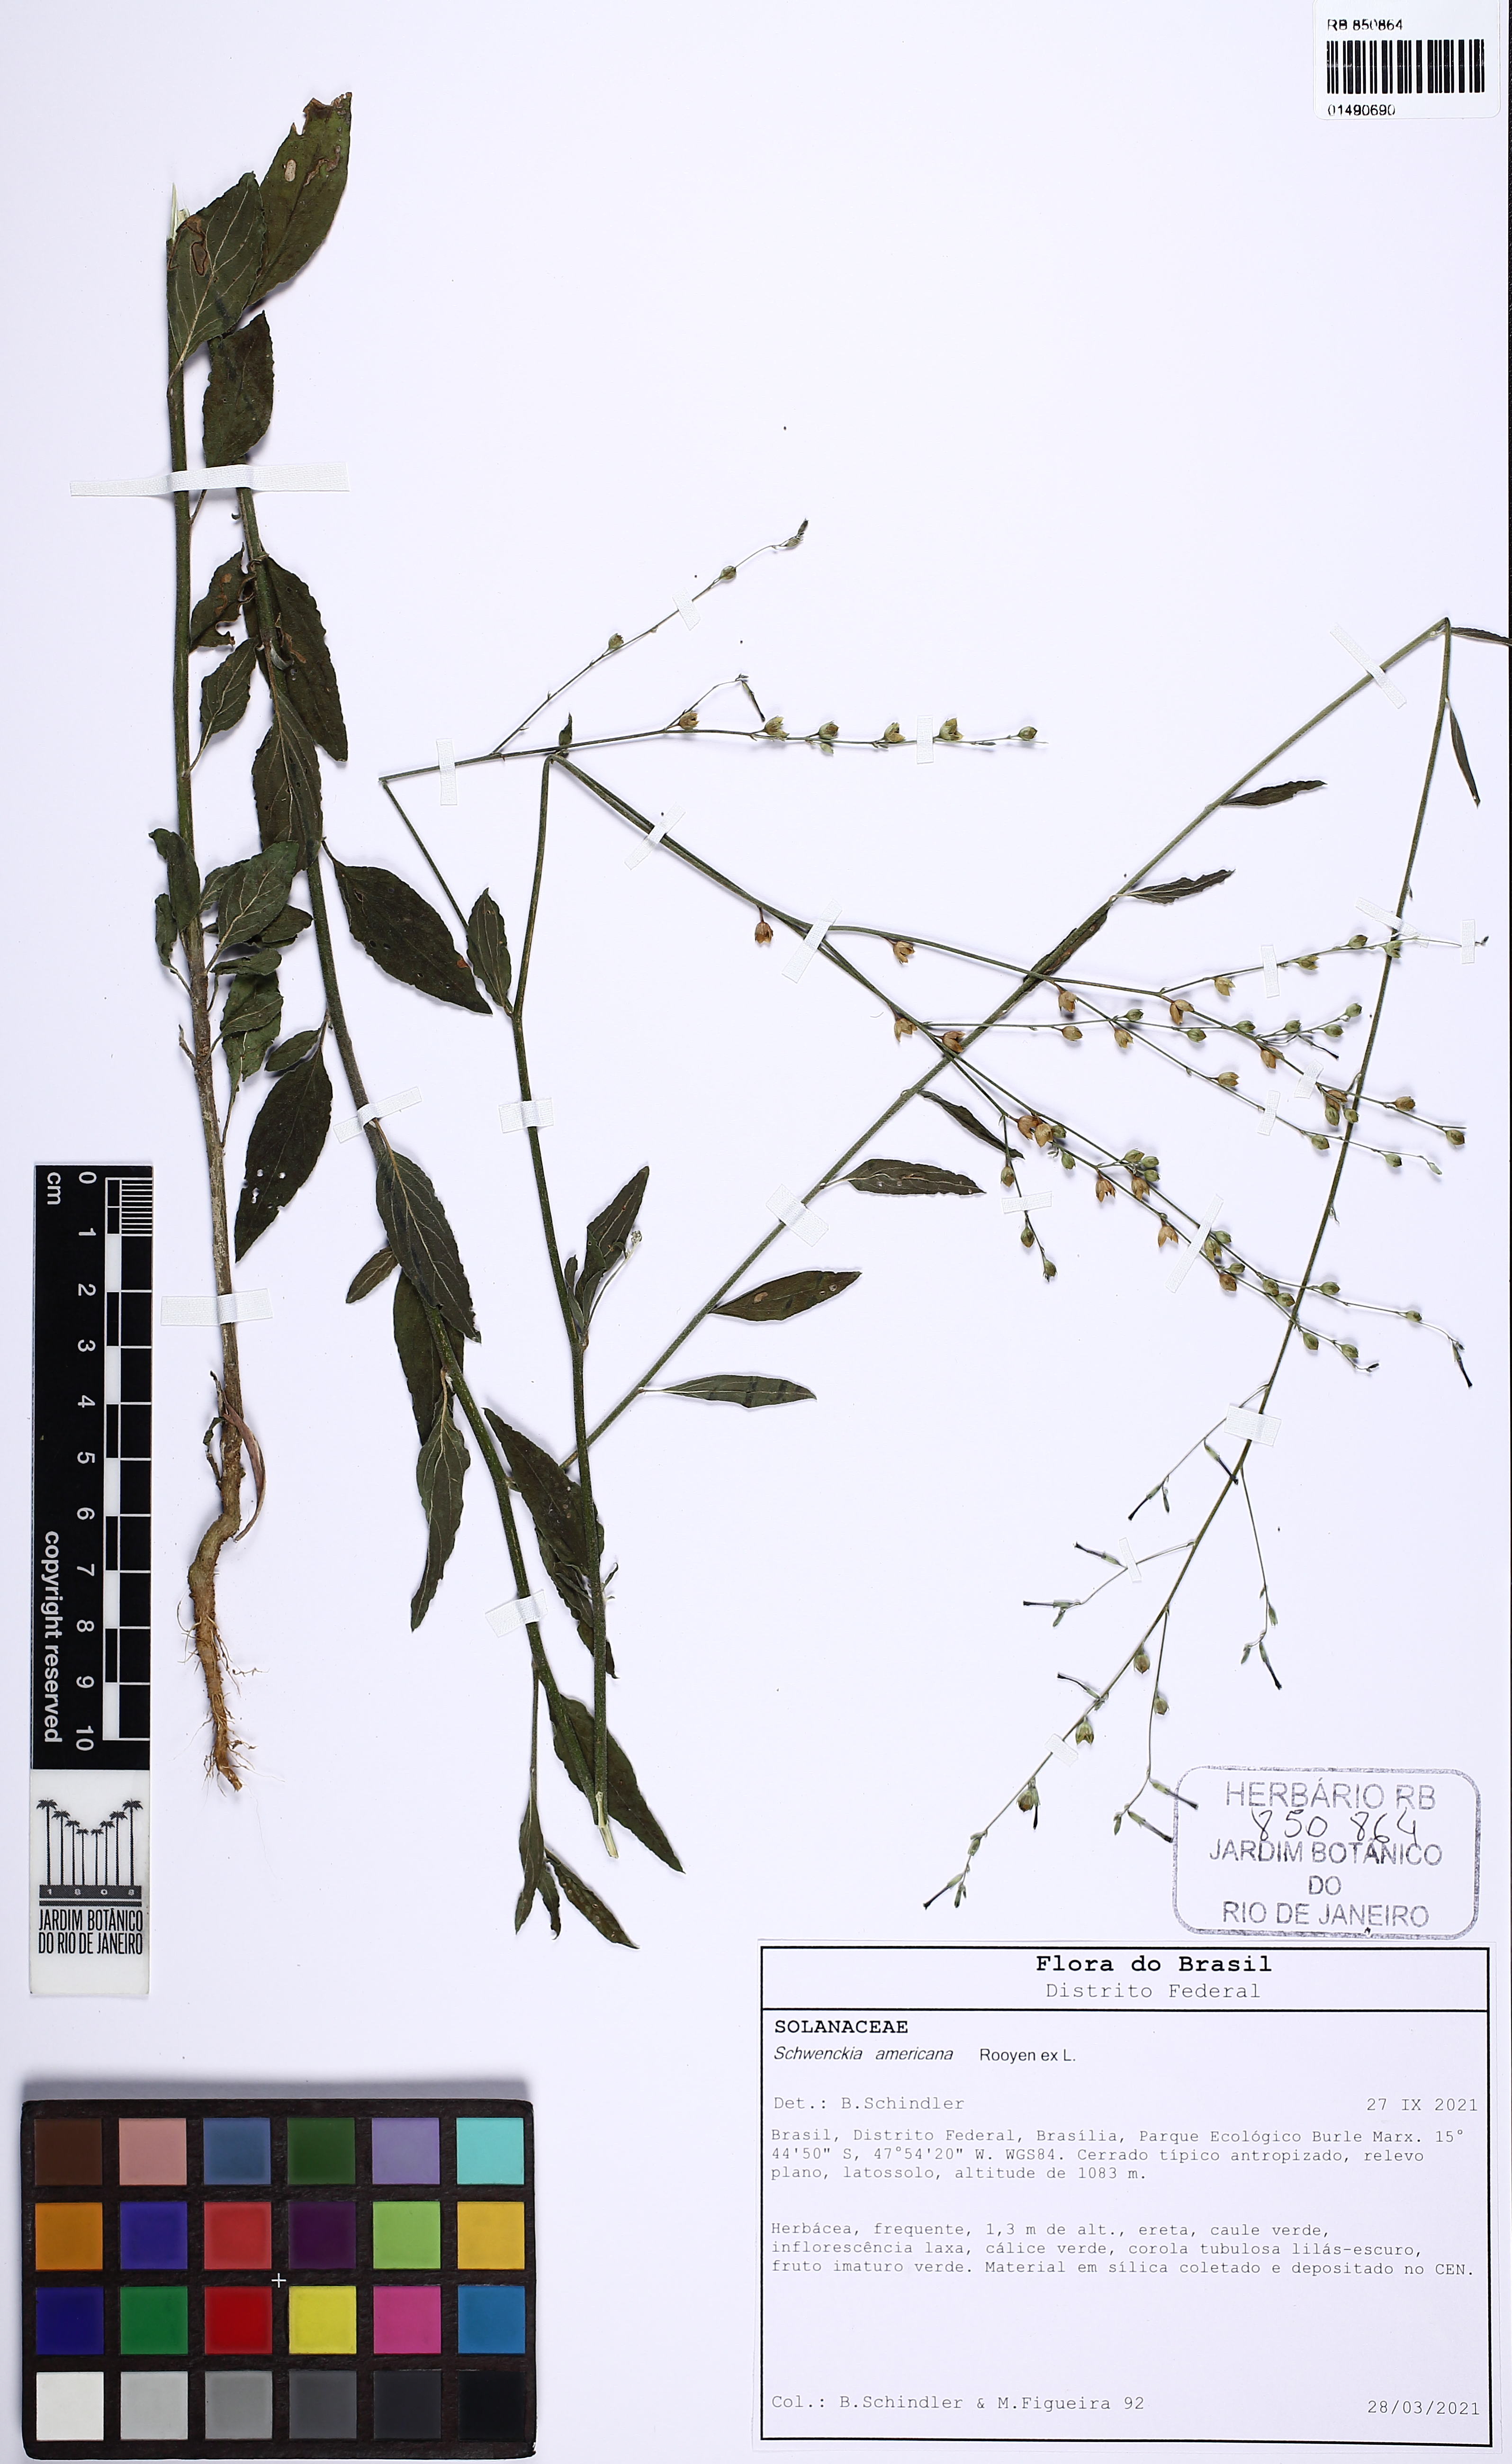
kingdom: Plantae
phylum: Tracheophyta
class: Magnoliopsida
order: Solanales
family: Solanaceae
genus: Schwenckia
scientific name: Schwenckia americana
